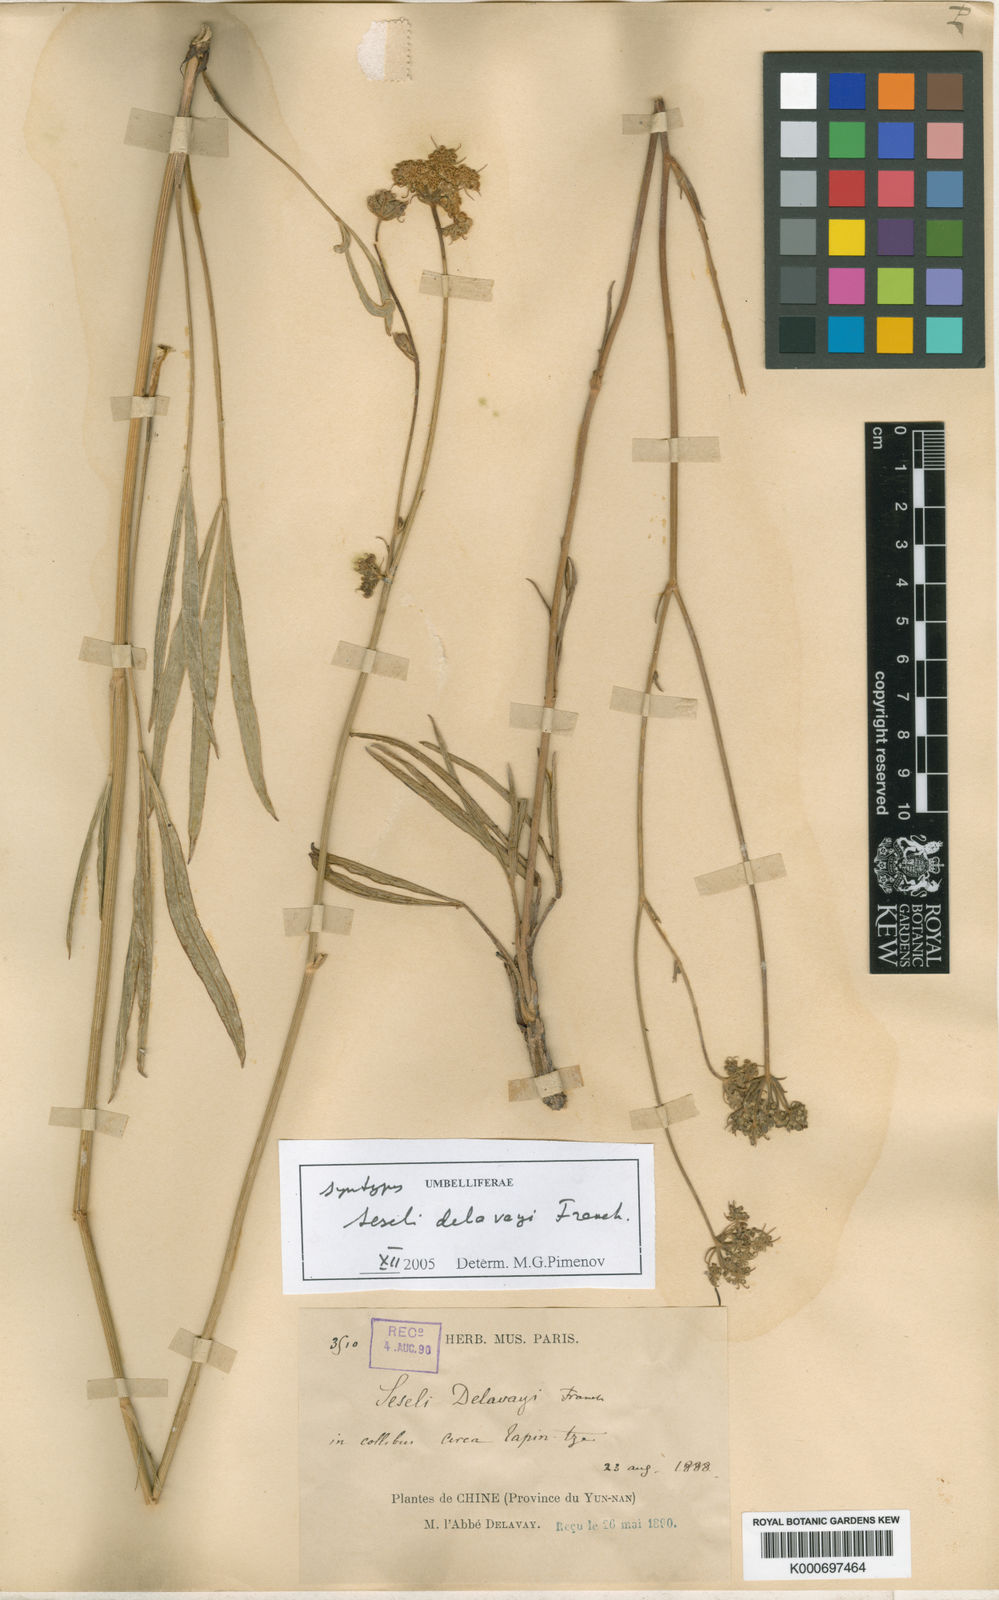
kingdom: Plantae
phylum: Tracheophyta
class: Magnoliopsida
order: Apiales
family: Apiaceae
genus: Seseli
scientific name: Seseli delavayi
